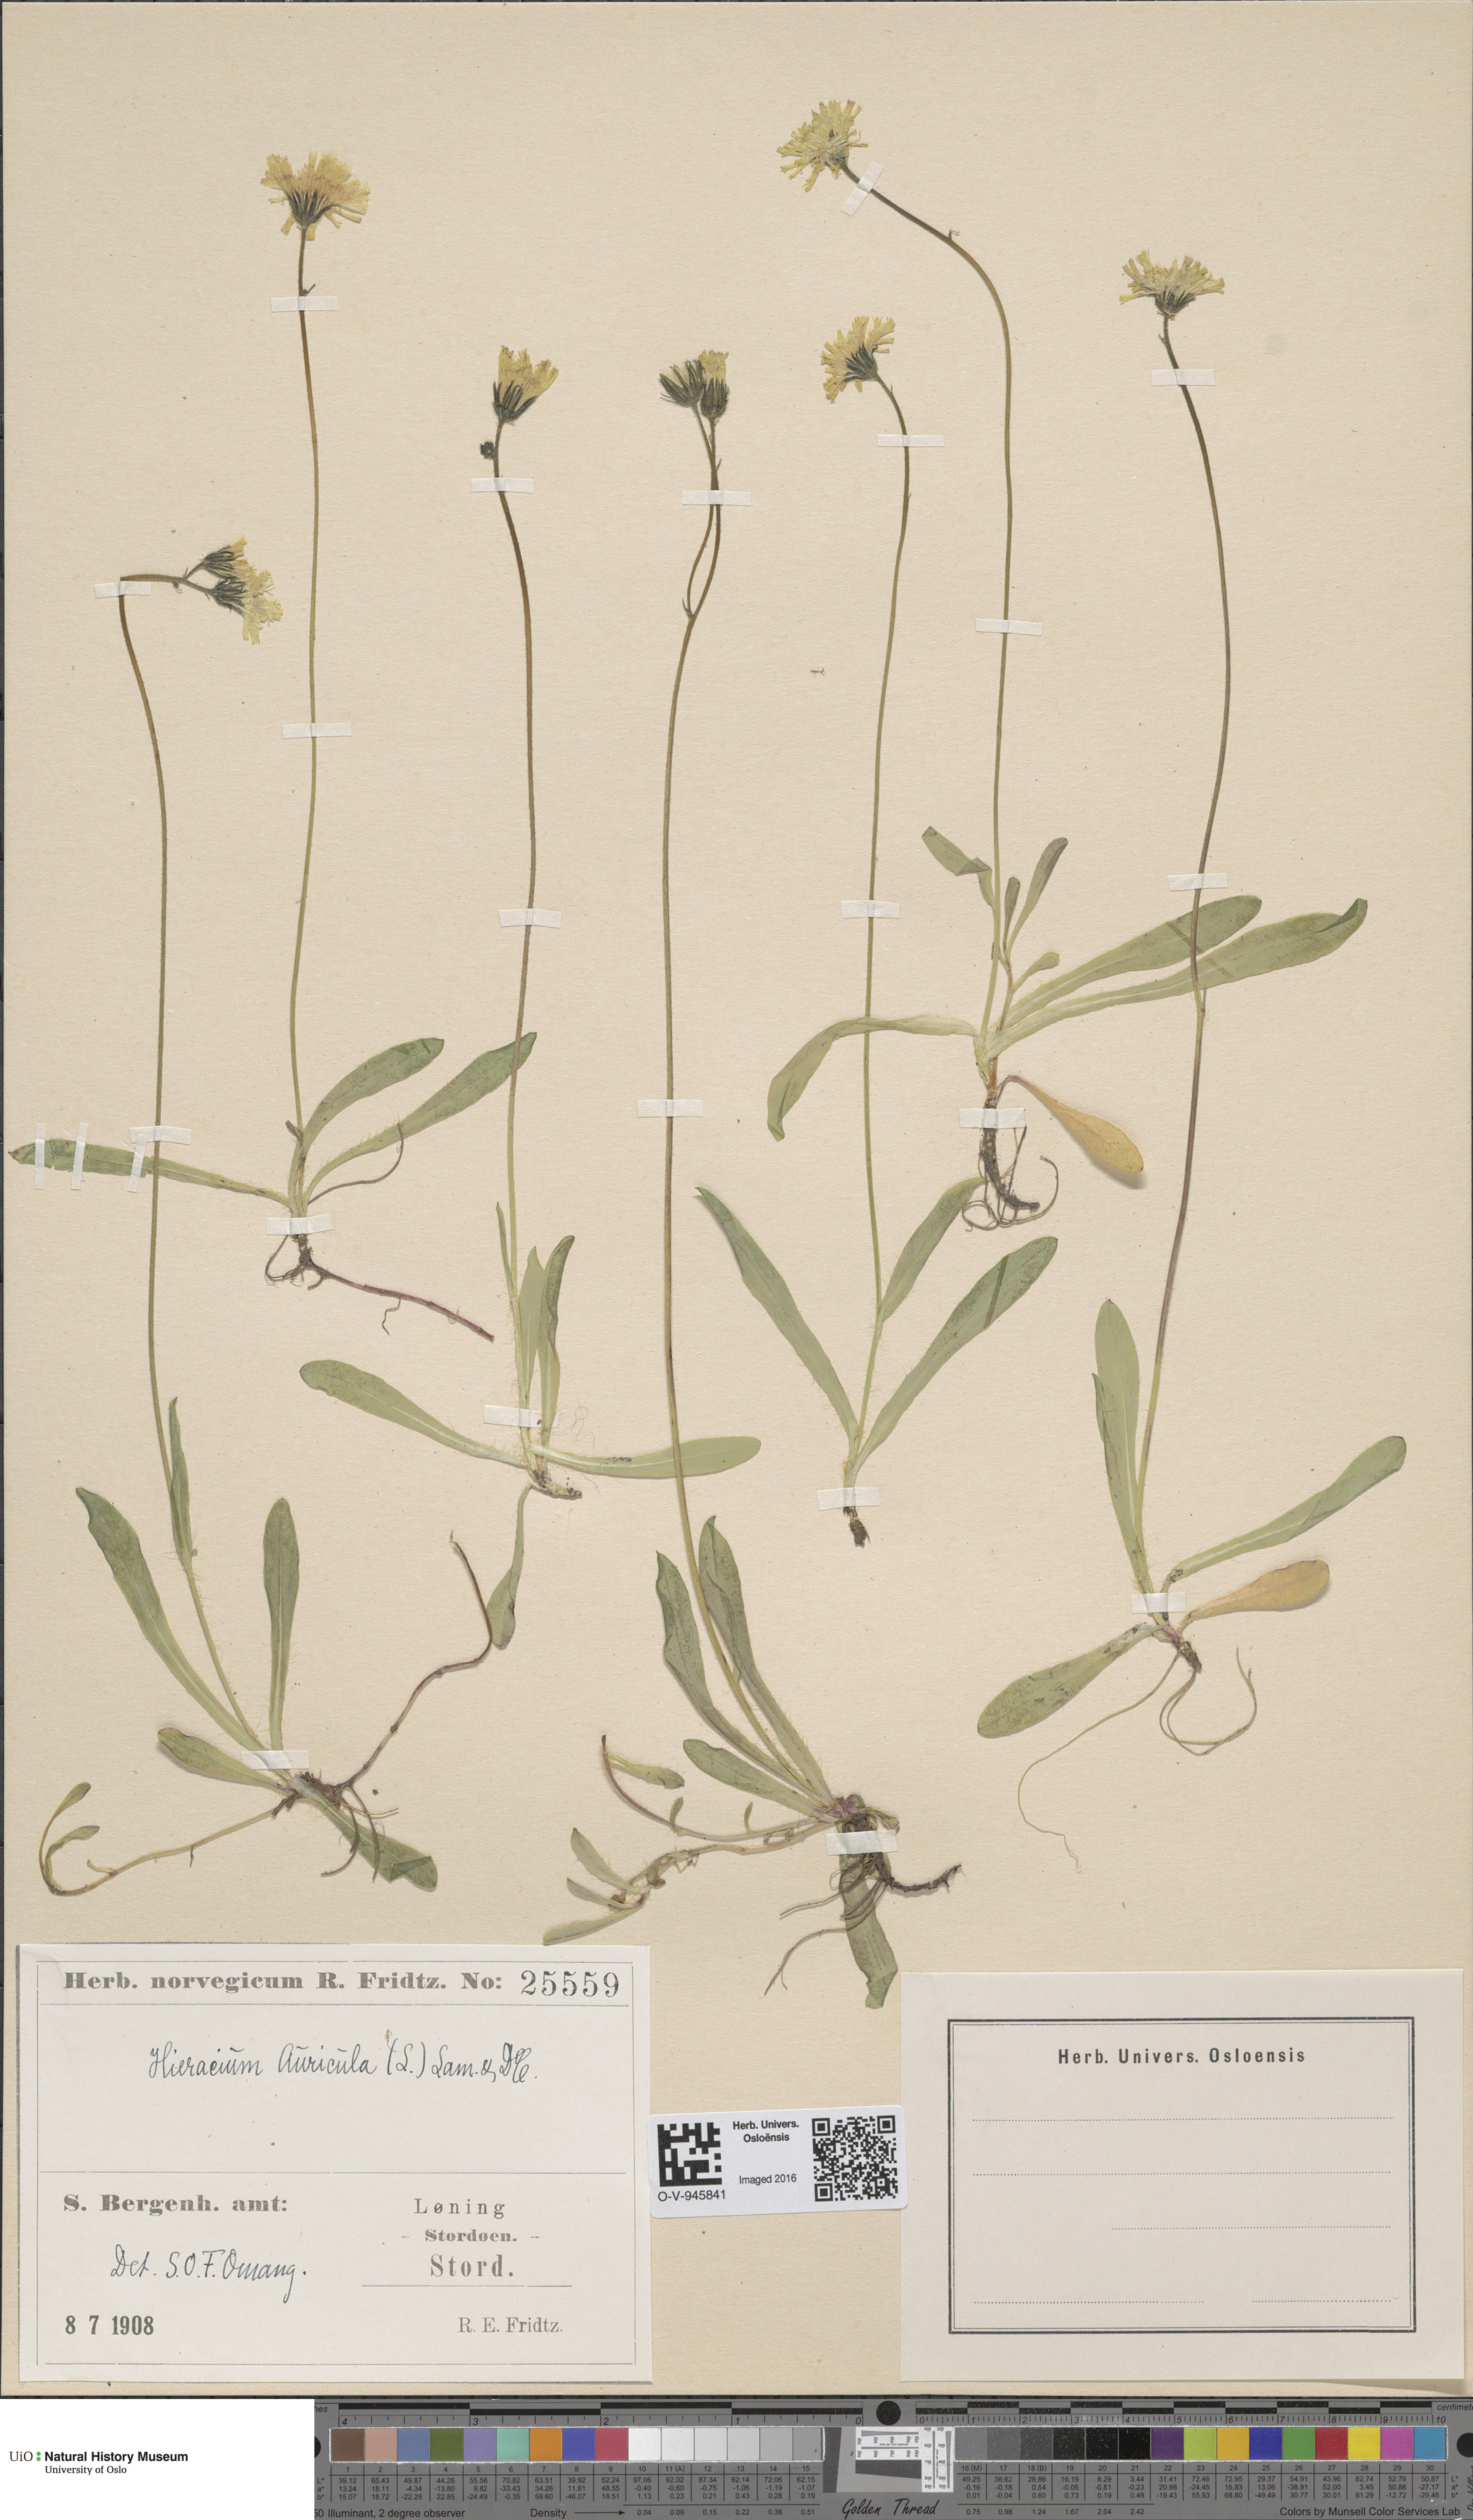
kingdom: Plantae
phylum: Tracheophyta
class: Magnoliopsida
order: Asterales
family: Asteraceae
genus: Pilosella
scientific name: Pilosella lactucella
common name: Glaucous fox-and-cubs
